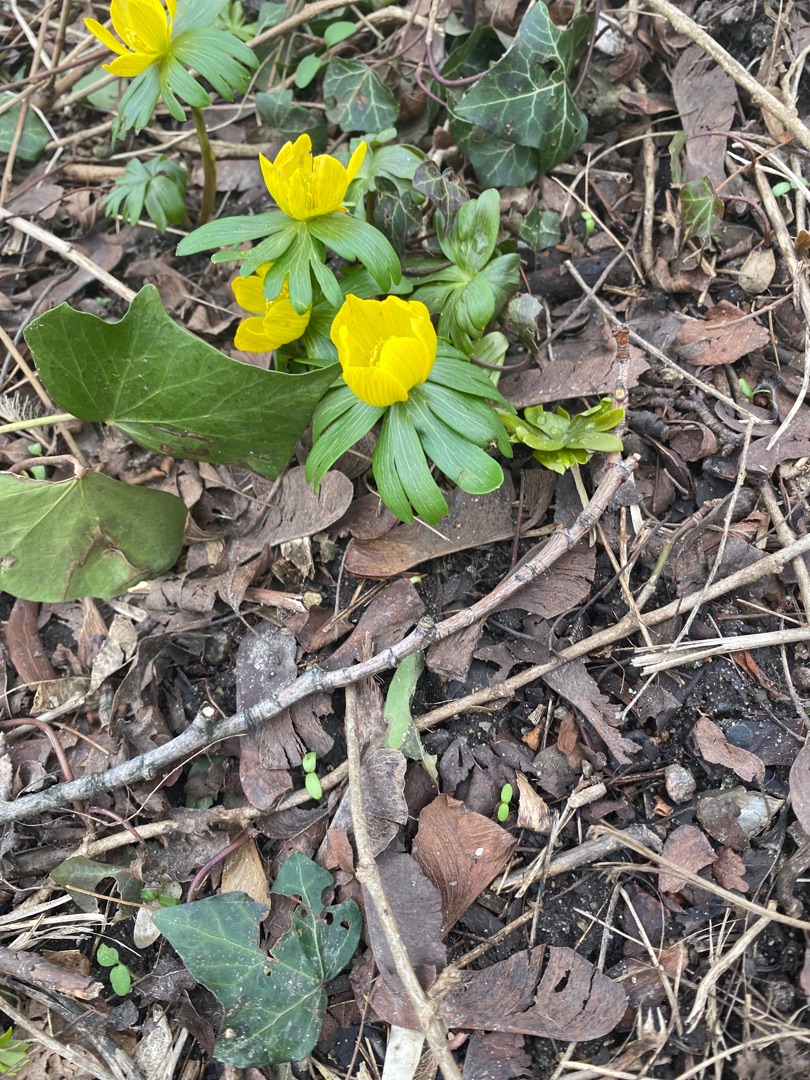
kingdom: Plantae
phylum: Tracheophyta
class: Magnoliopsida
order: Ranunculales
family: Ranunculaceae
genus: Eranthis
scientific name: Eranthis hyemalis
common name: Erantis
